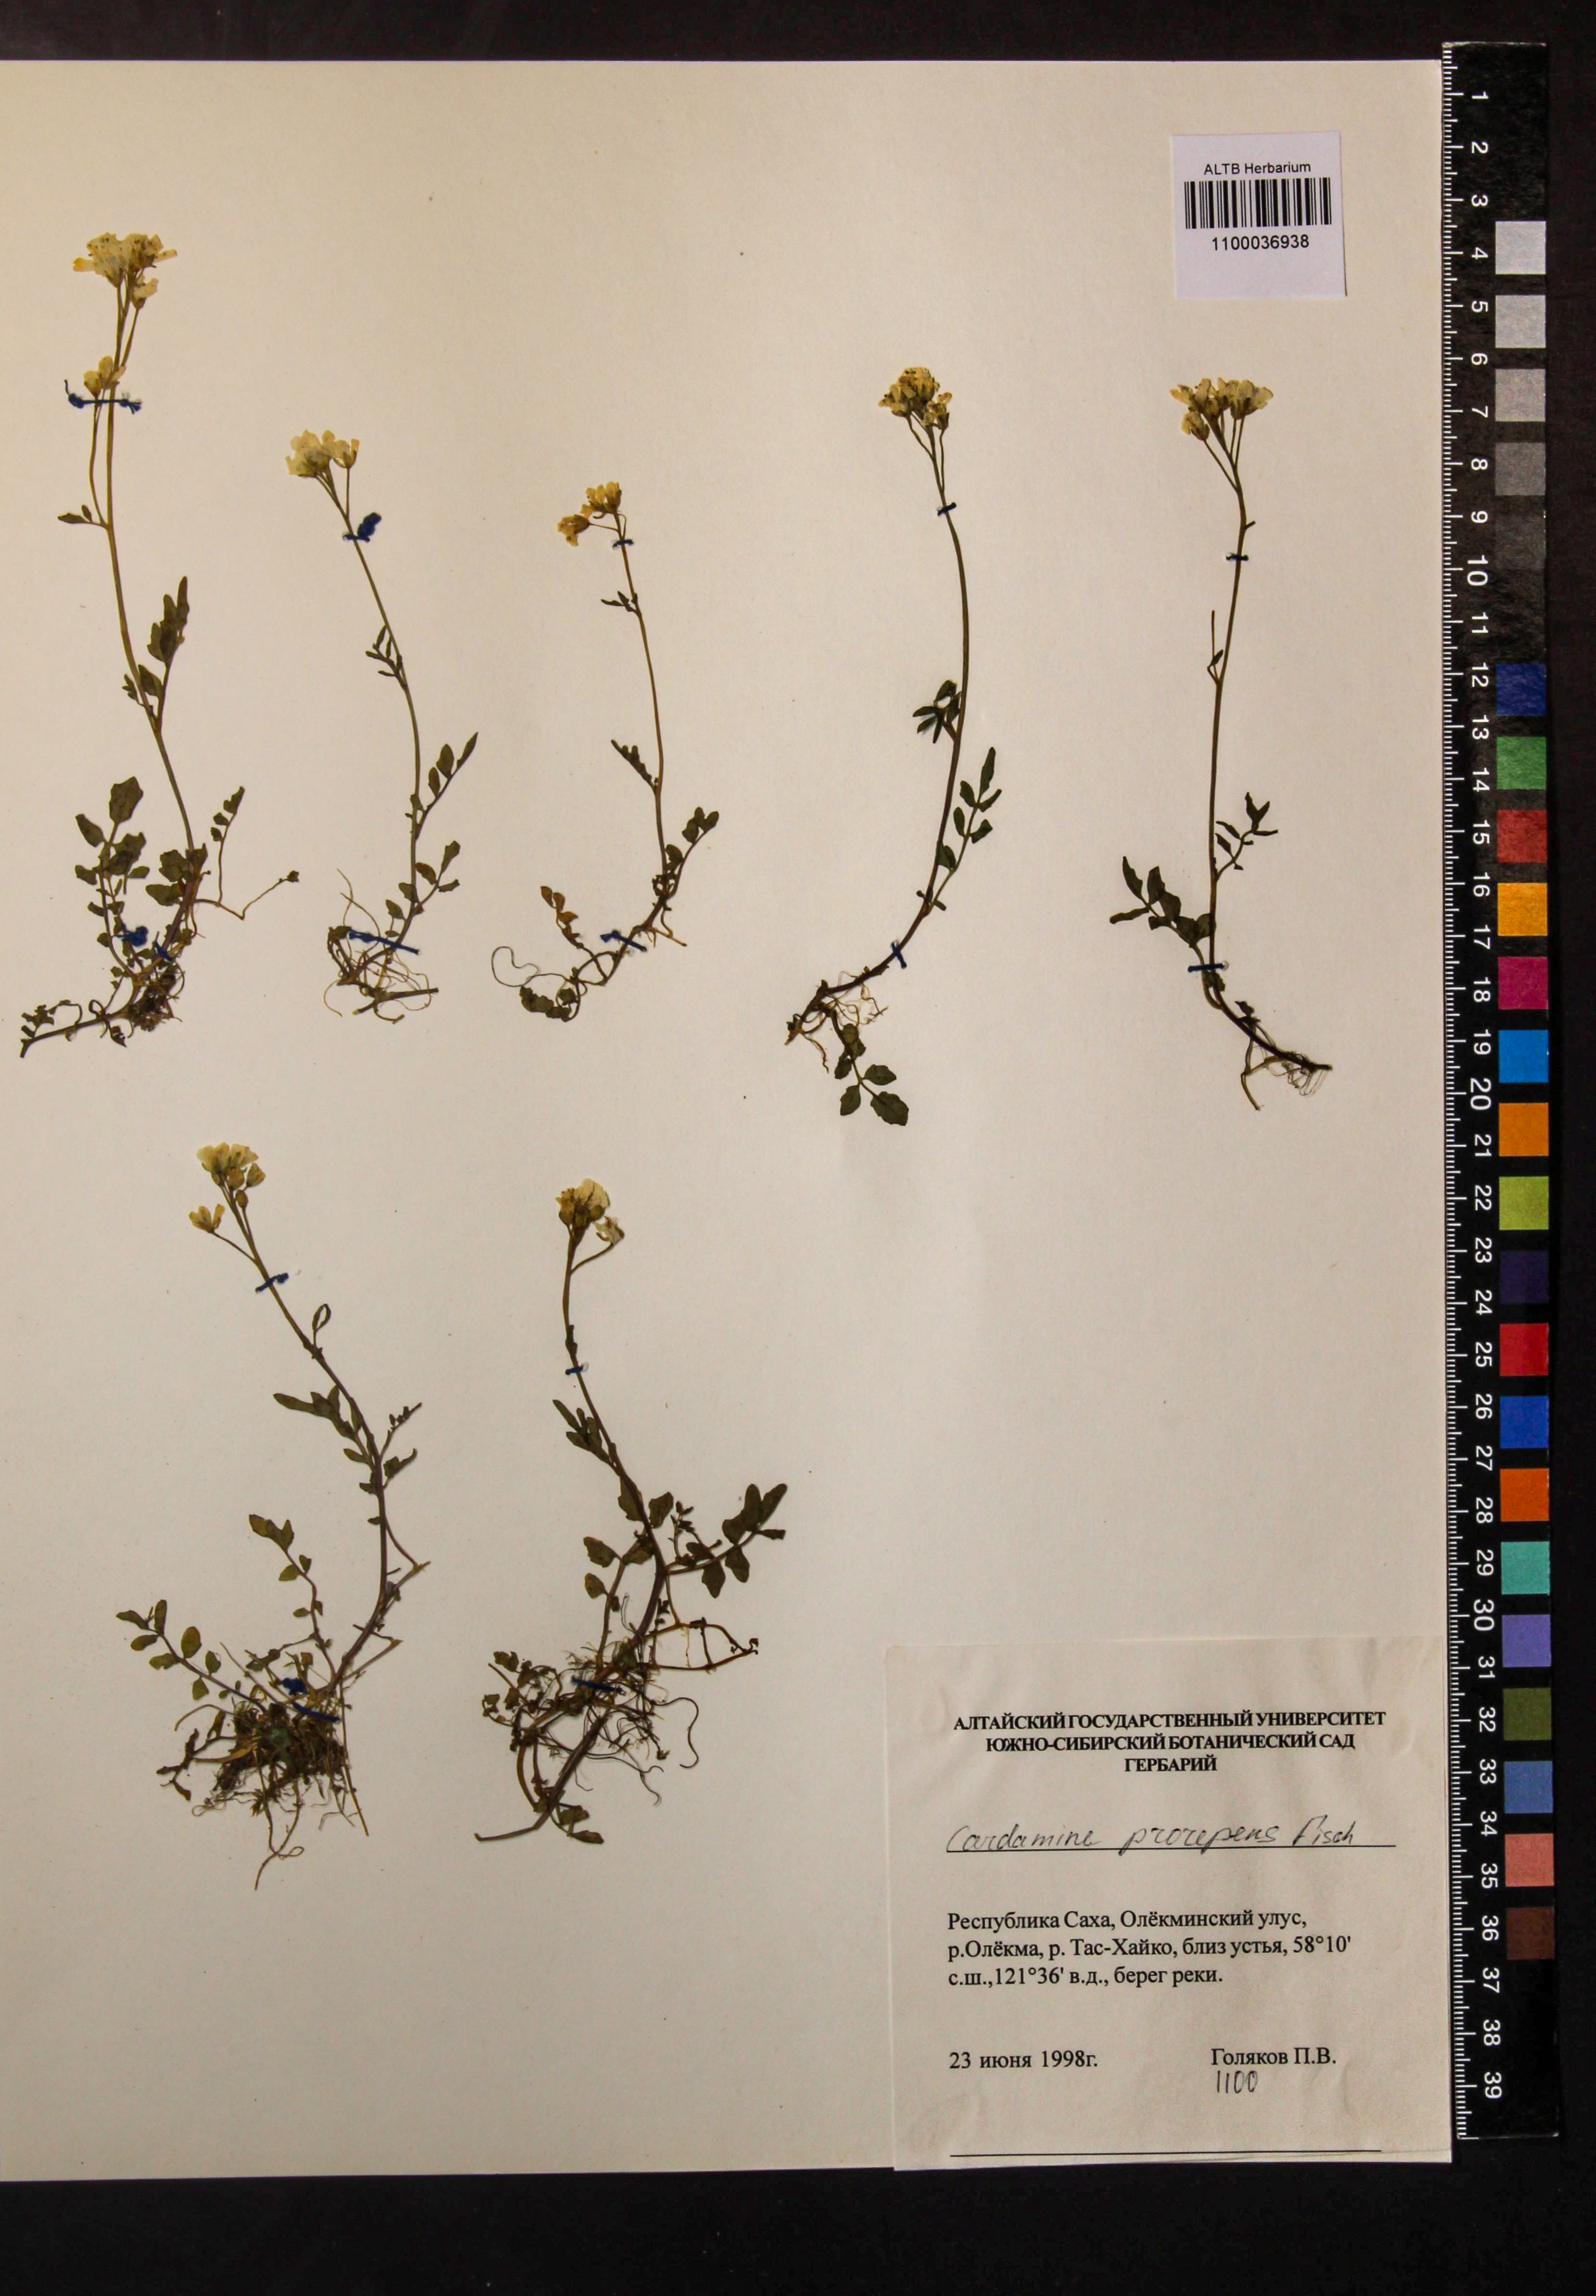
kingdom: Plantae
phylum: Tracheophyta
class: Magnoliopsida
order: Brassicales
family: Brassicaceae
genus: Cardamine
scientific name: Cardamine prorepens
